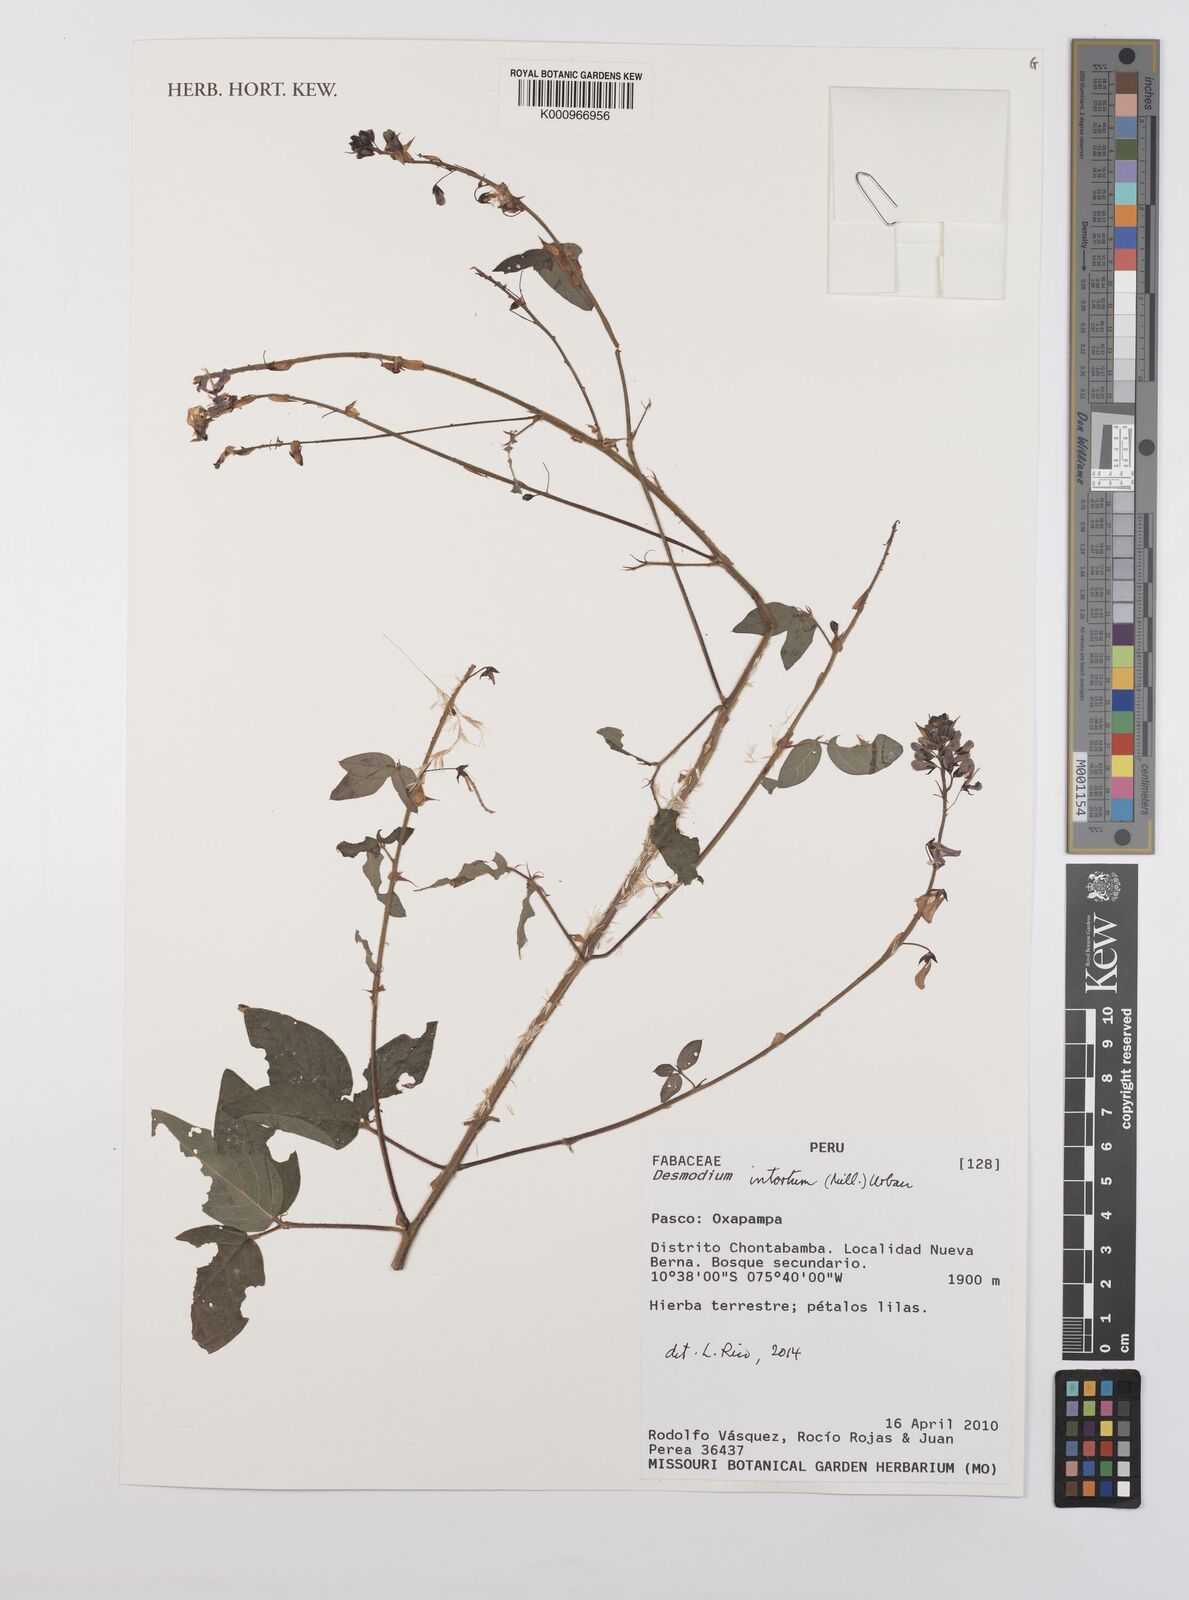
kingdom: Plantae
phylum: Tracheophyta
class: Magnoliopsida
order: Fabales
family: Fabaceae
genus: Desmodium
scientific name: Desmodium intortum
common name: Greenleaf ticktrefoil
